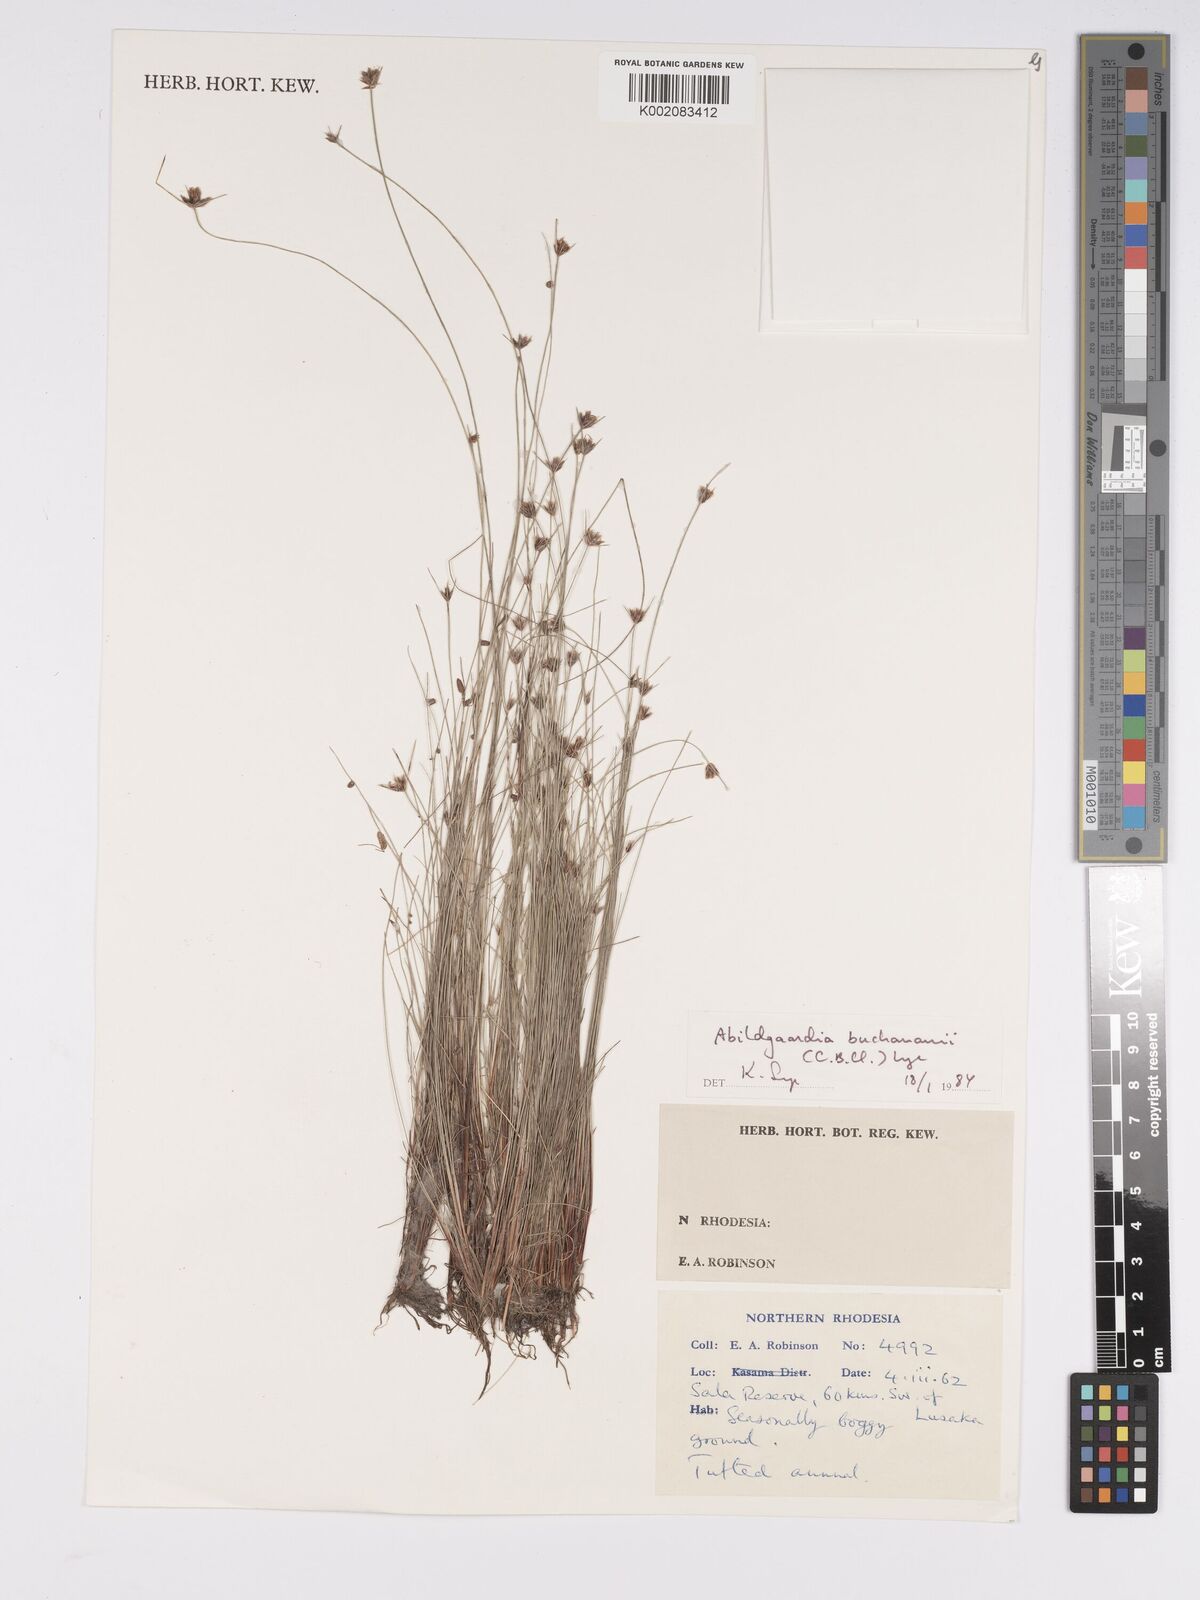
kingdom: Plantae
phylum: Tracheophyta
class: Liliopsida
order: Poales
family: Cyperaceae
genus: Bulbostylis
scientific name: Bulbostylis buchananii
